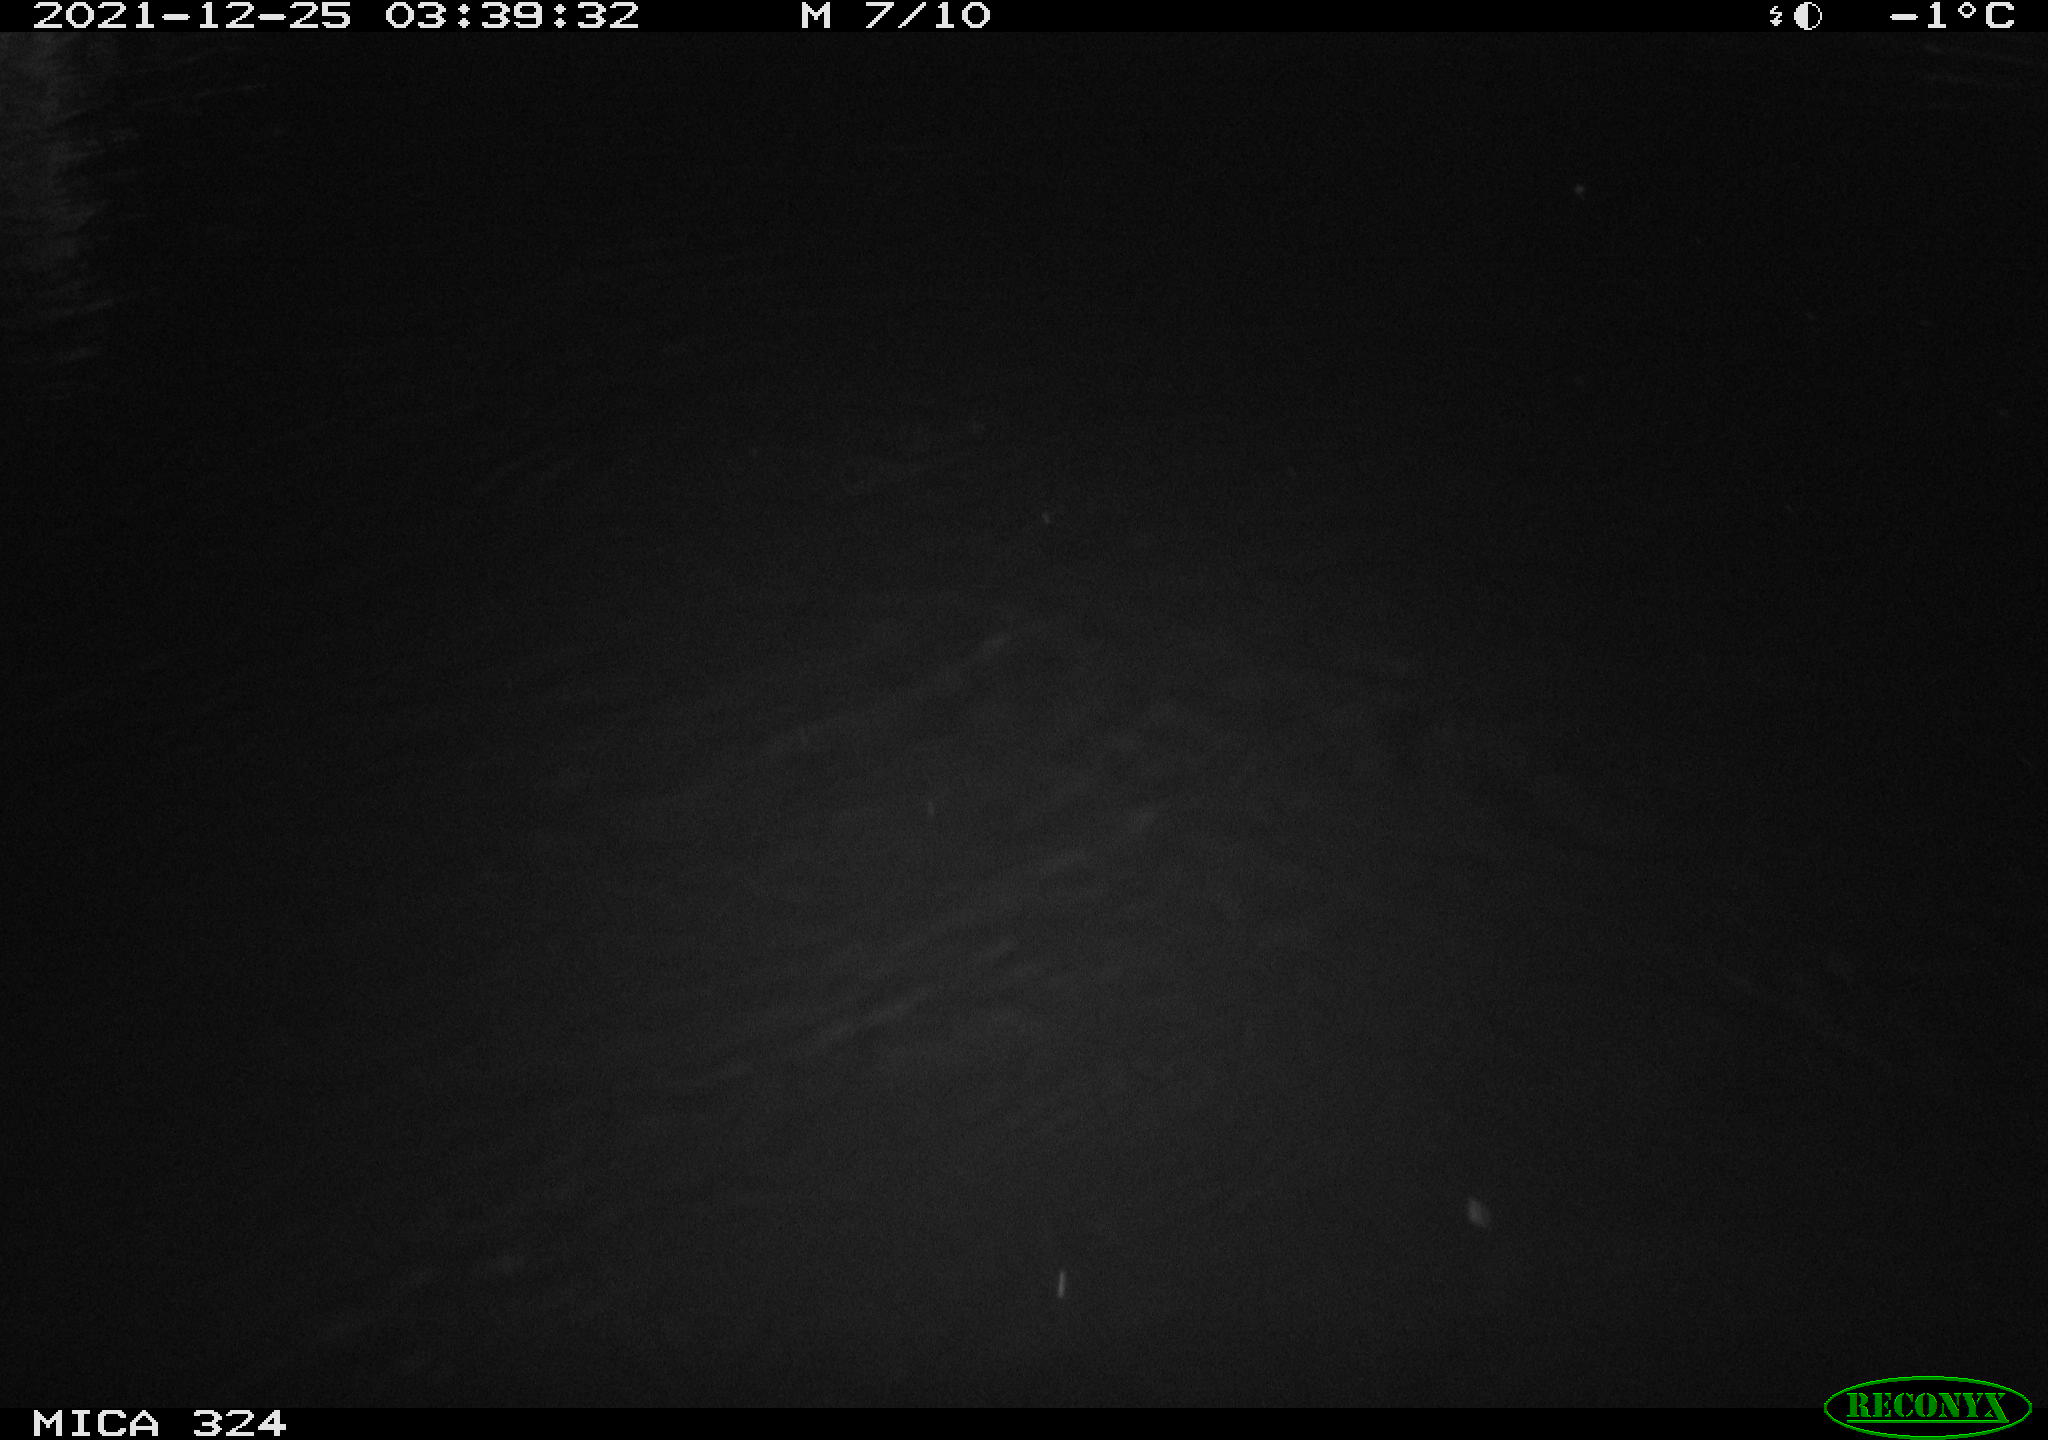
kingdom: Animalia
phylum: Chordata
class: Mammalia
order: Rodentia
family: Cricetidae
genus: Ondatra
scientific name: Ondatra zibethicus
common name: Muskrat
